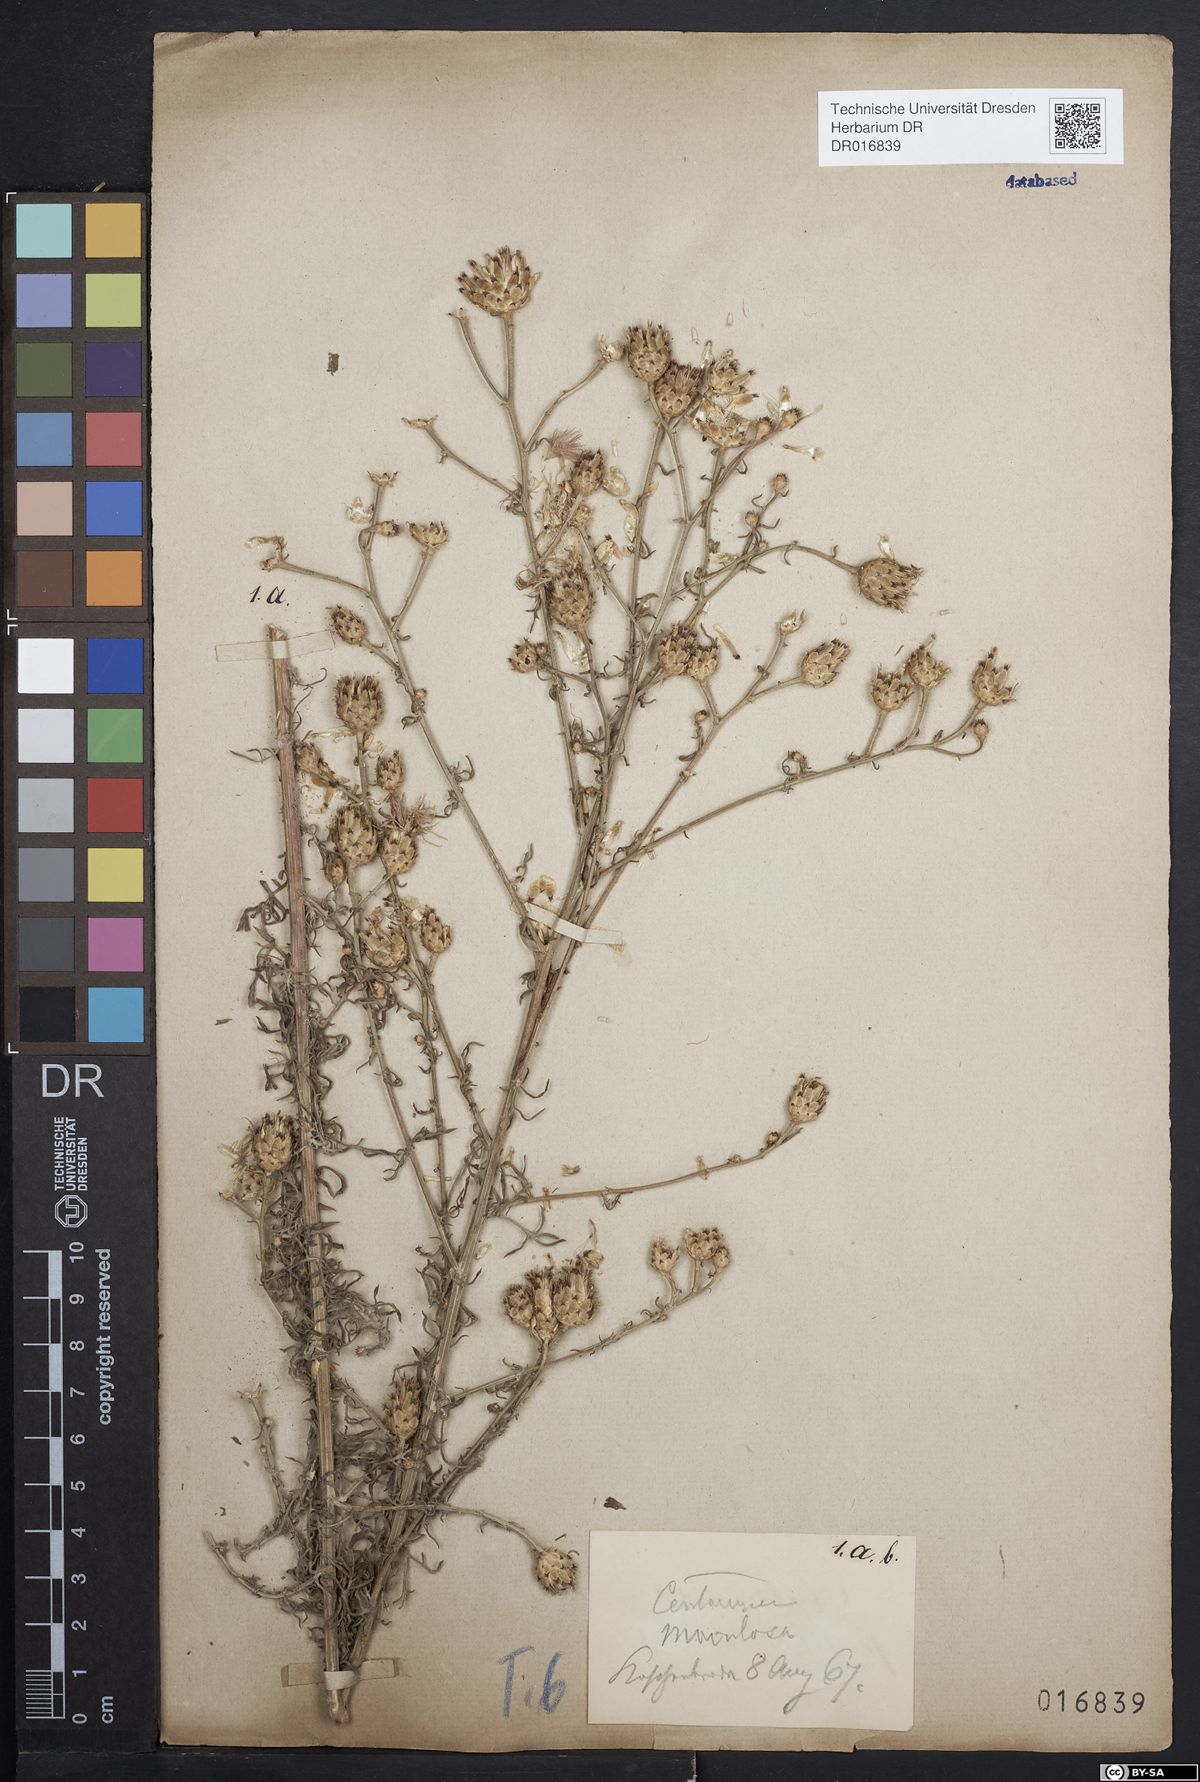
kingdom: Plantae
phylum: Tracheophyta
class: Magnoliopsida
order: Asterales
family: Asteraceae
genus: Centaurea
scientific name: Centaurea stoebe
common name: Spotted knapweed
